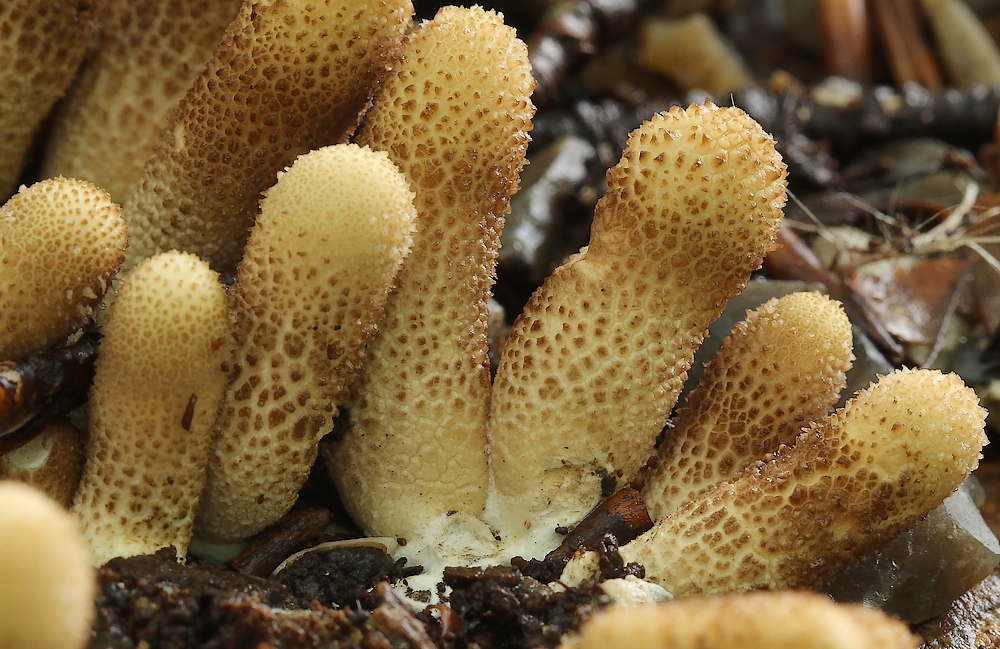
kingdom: Fungi
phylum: Basidiomycota
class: Agaricomycetes
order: Agaricales
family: Lycoperdaceae
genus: Apioperdon
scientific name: Apioperdon pyriforme
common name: pære-støvbold
